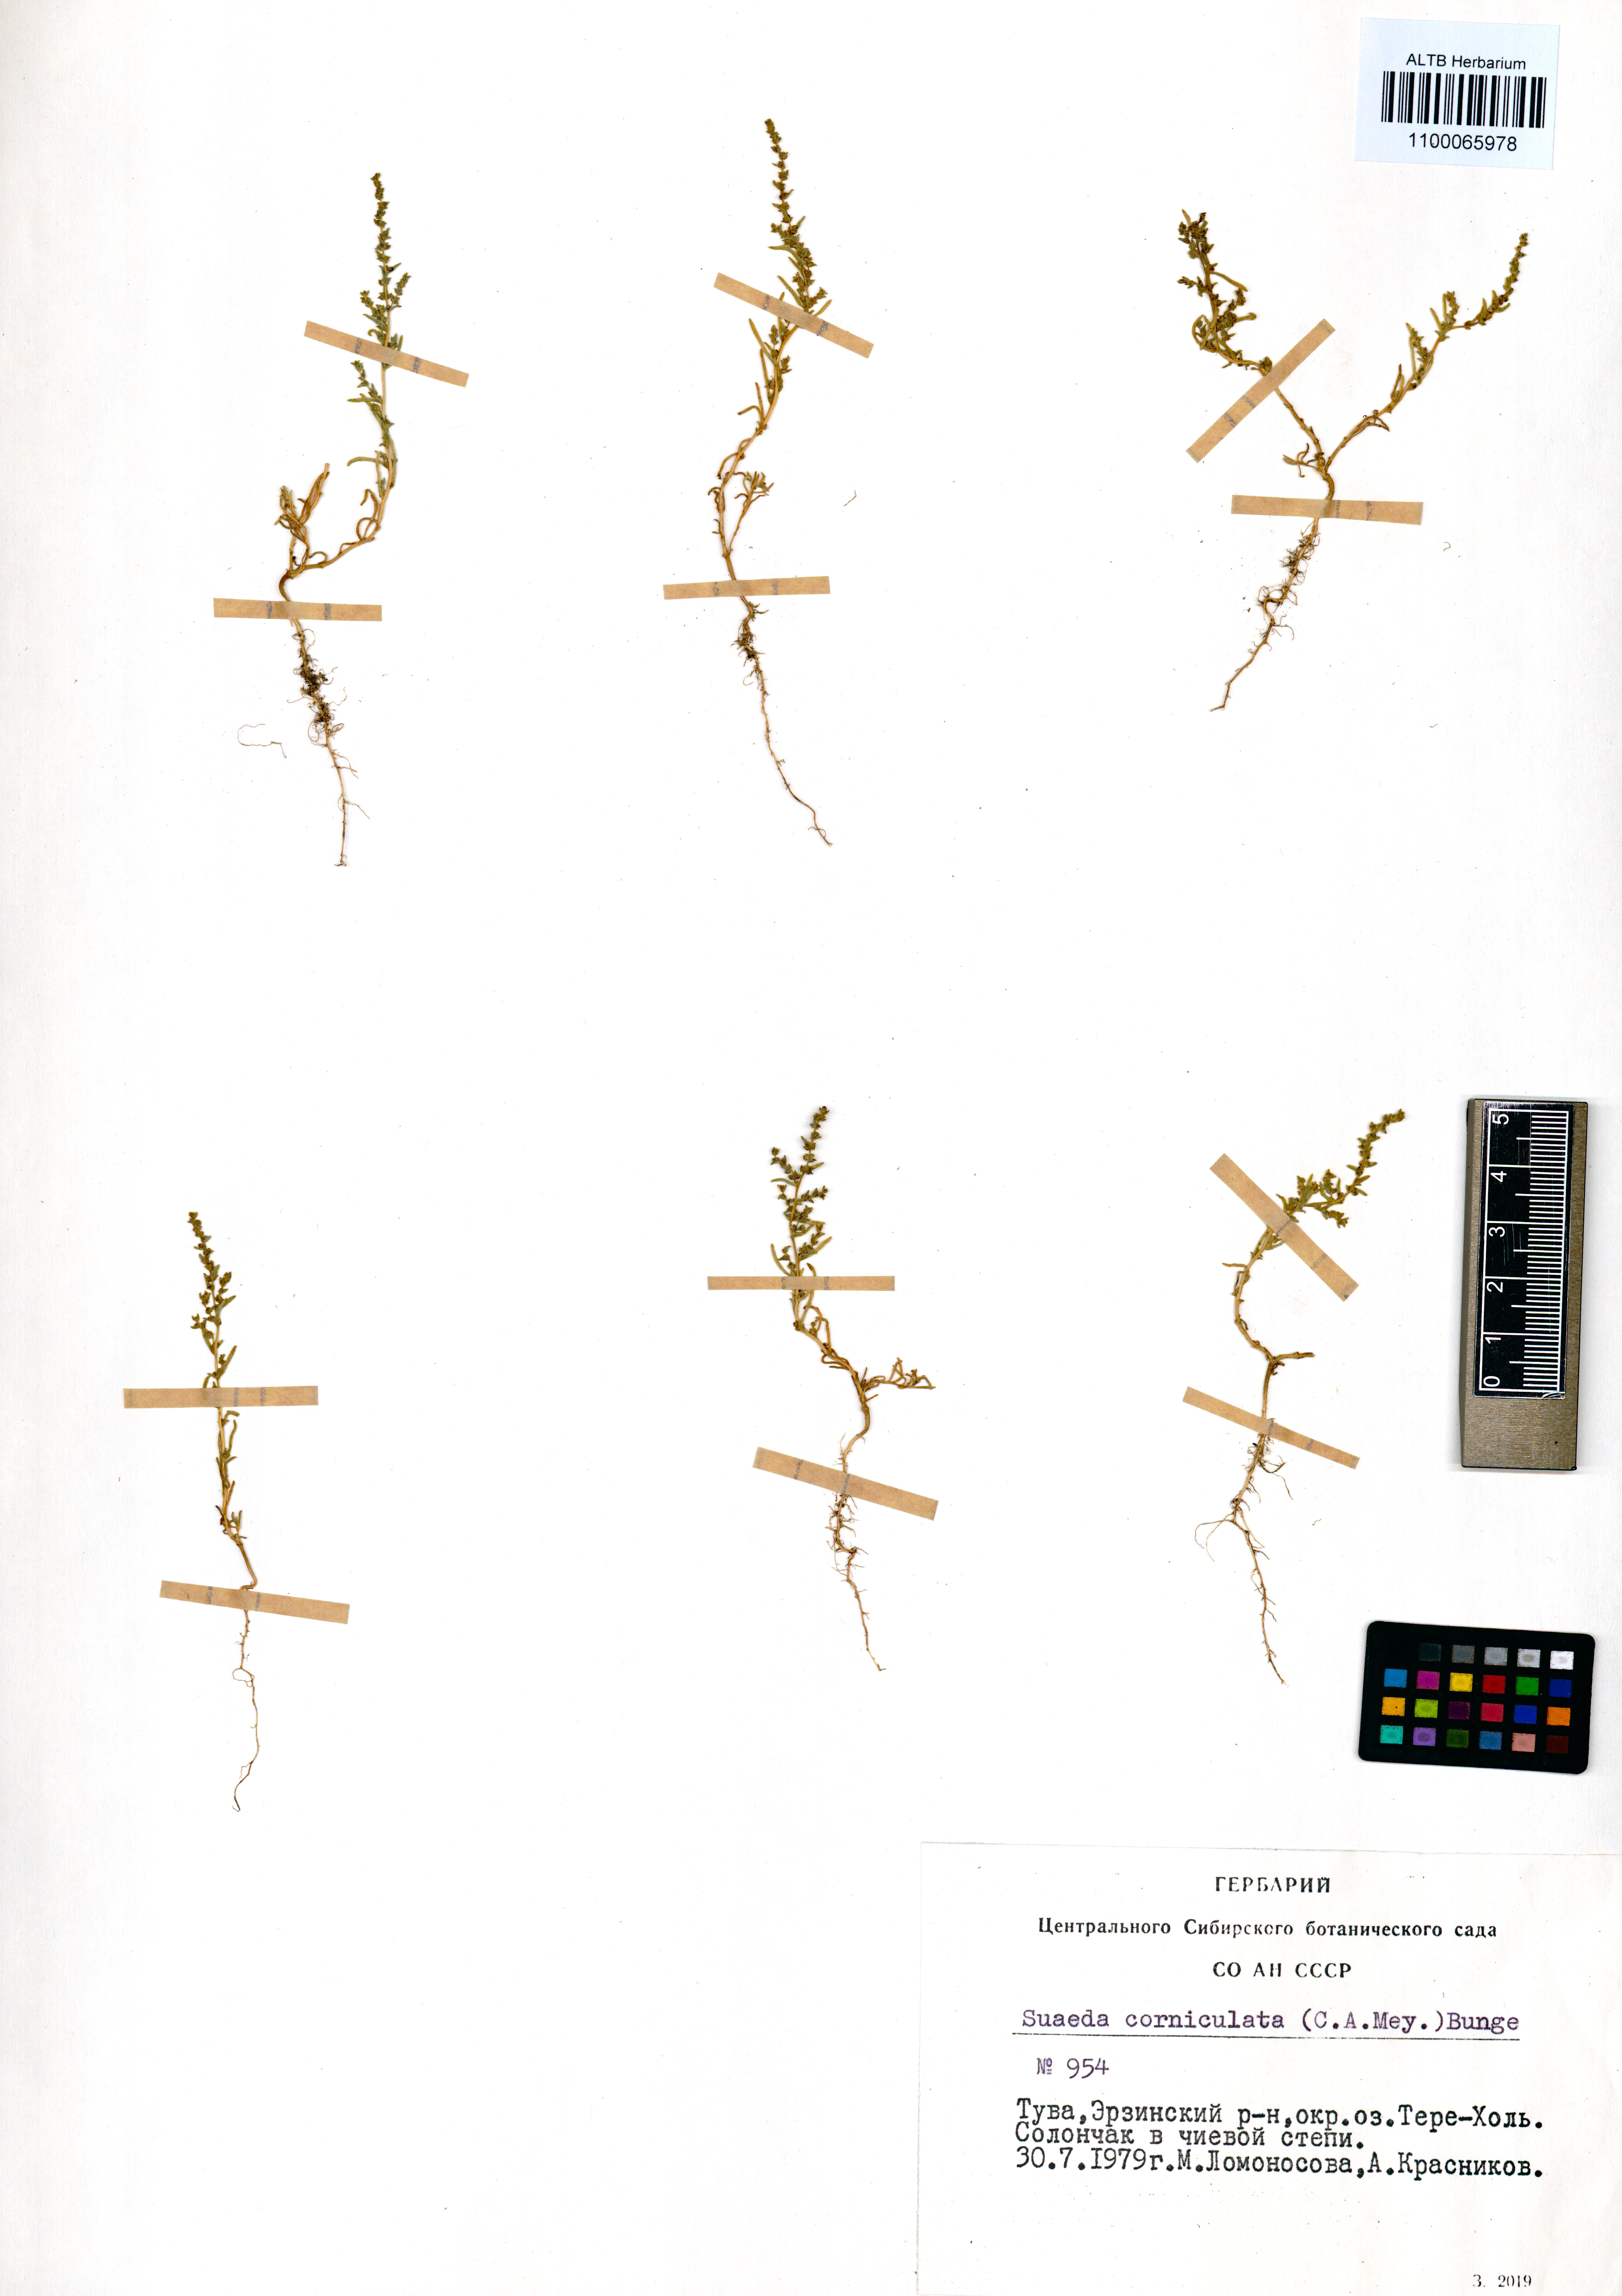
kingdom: Plantae
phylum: Tracheophyta
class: Magnoliopsida
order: Caryophyllales
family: Amaranthaceae
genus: Suaeda
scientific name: Suaeda corniculata
